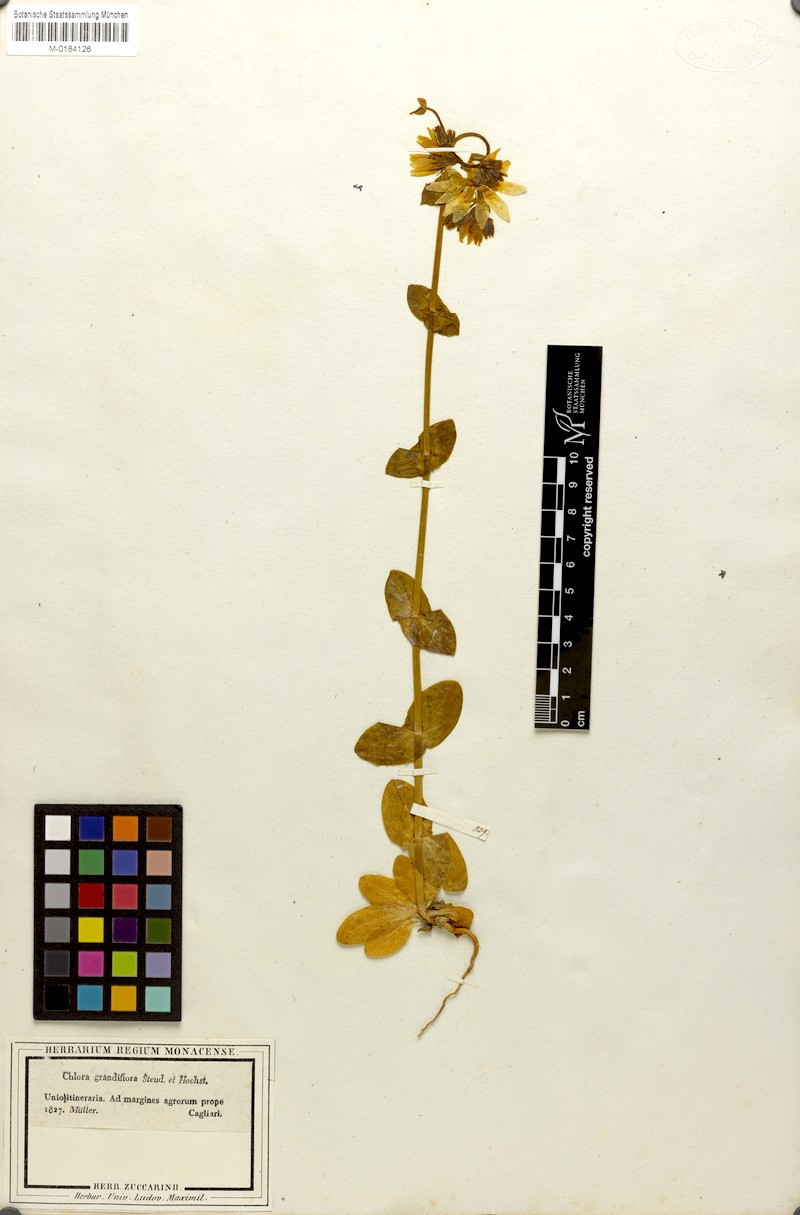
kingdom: Plantae
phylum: Tracheophyta
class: Magnoliopsida
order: Gentianales
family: Gentianaceae
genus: Blackstonia
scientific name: Blackstonia grandiflora
